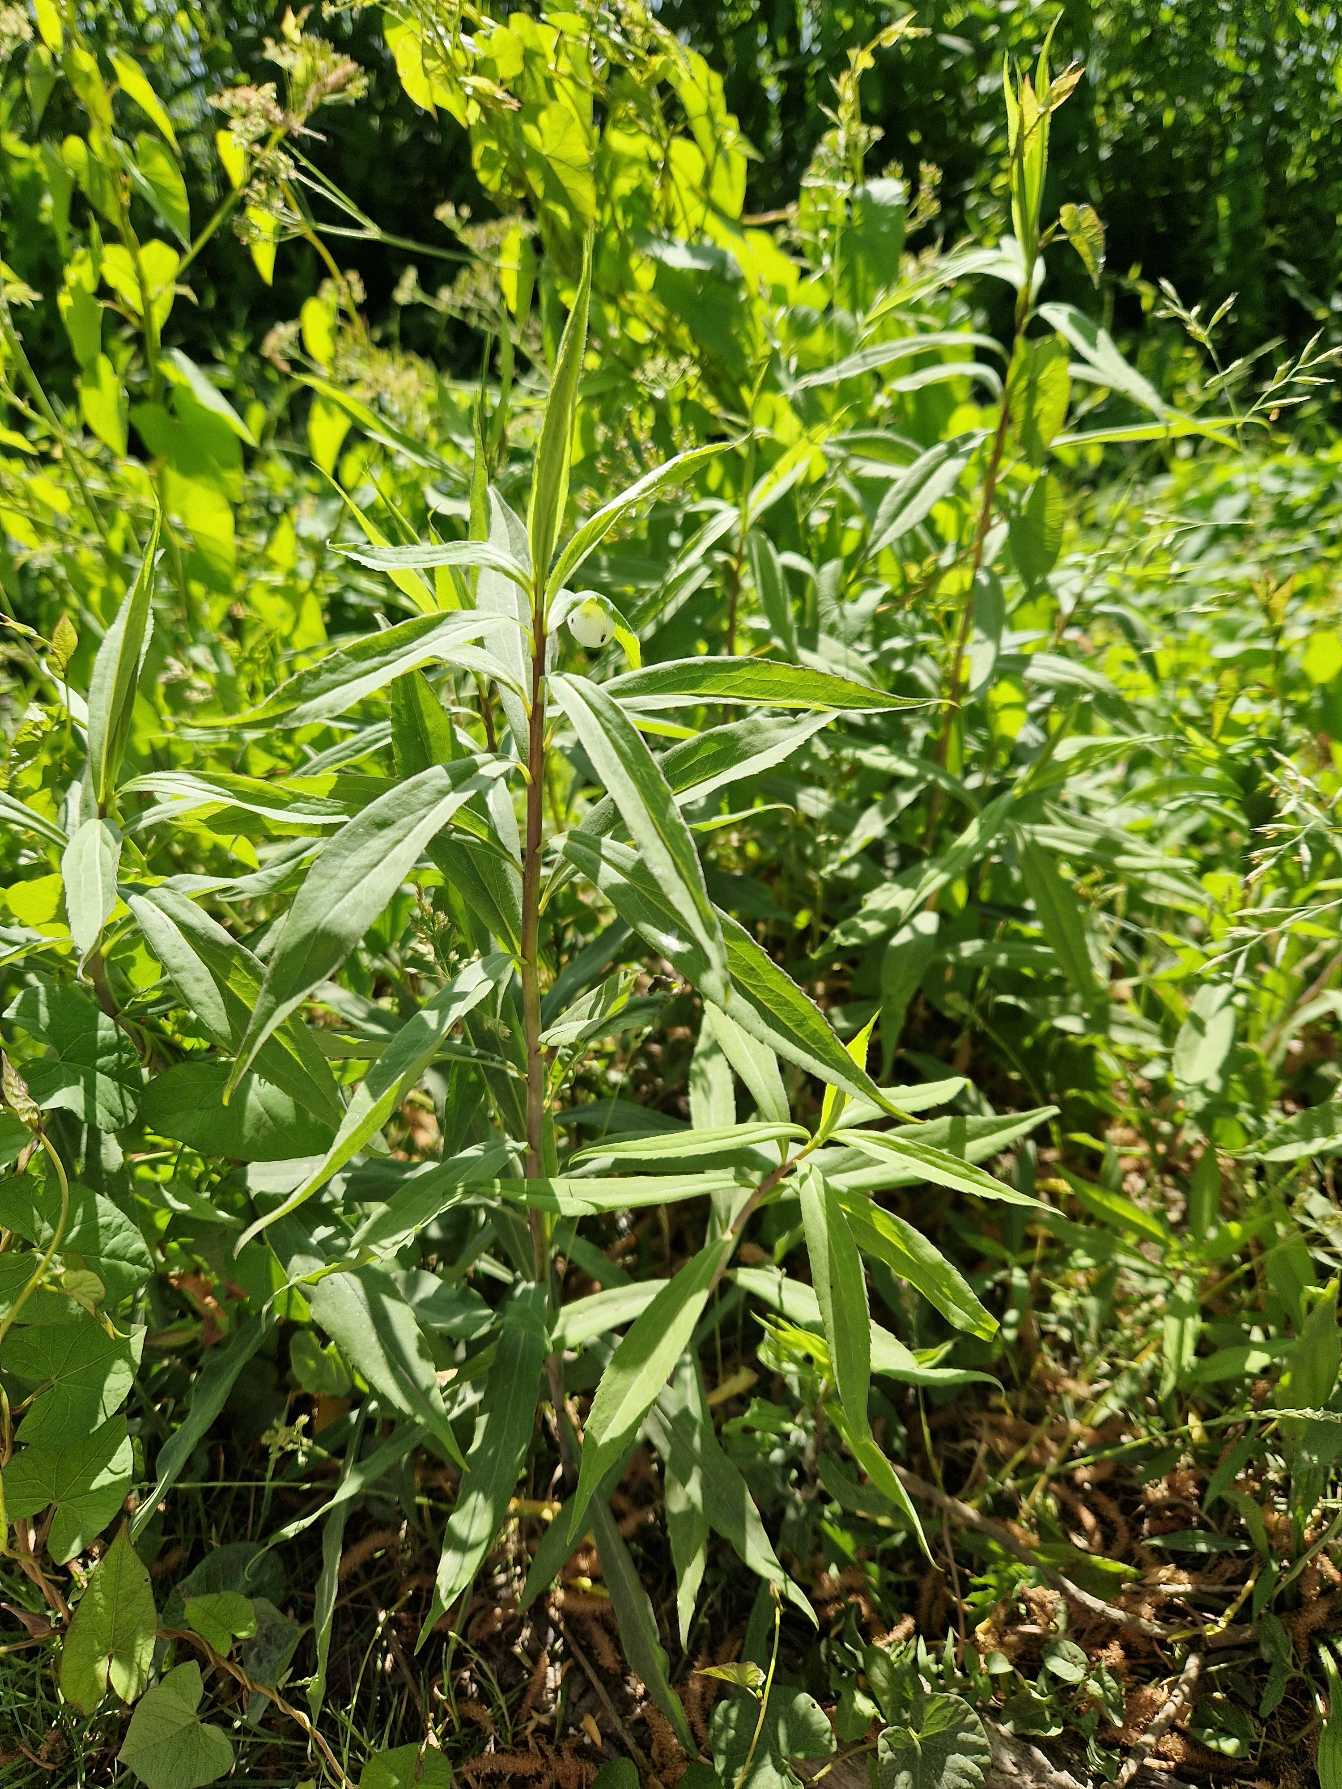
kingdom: Plantae
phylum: Tracheophyta
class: Magnoliopsida
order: Myrtales
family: Onagraceae
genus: Chamaenerion
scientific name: Chamaenerion angustifolium
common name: Gederams
